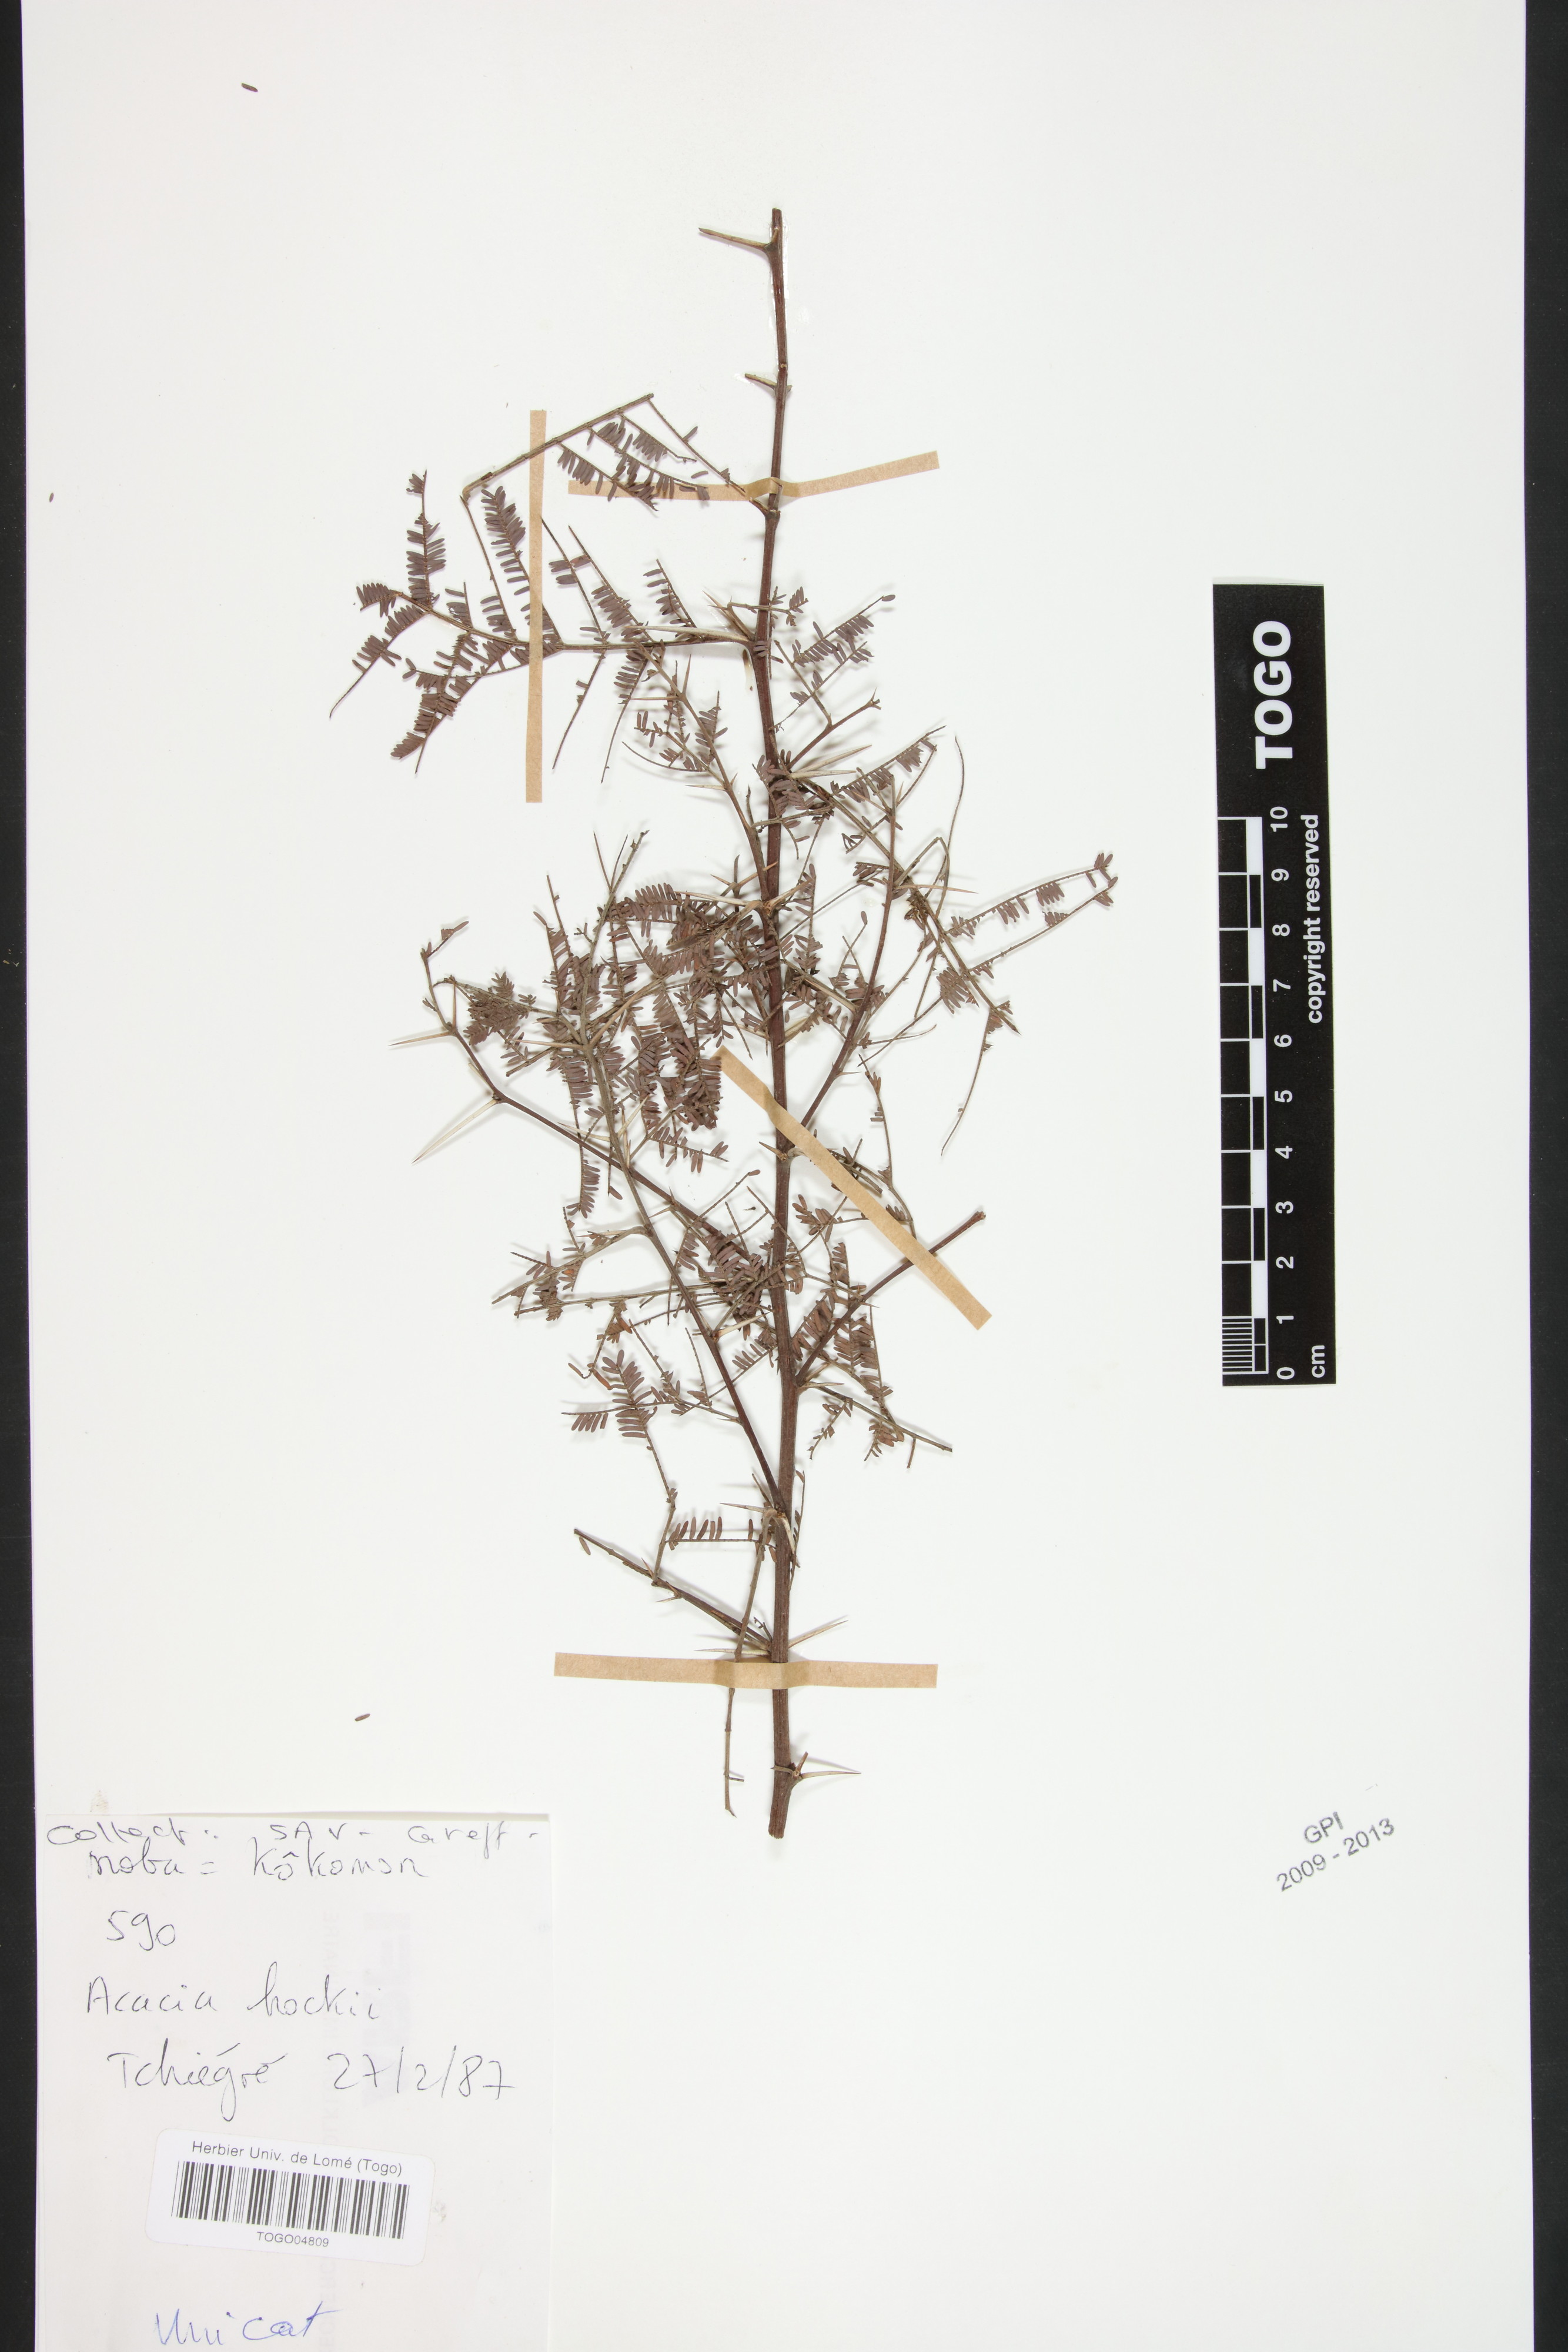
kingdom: Plantae
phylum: Tracheophyta
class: Magnoliopsida
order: Fabales
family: Fabaceae
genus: Vachellia
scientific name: Vachellia hockii
